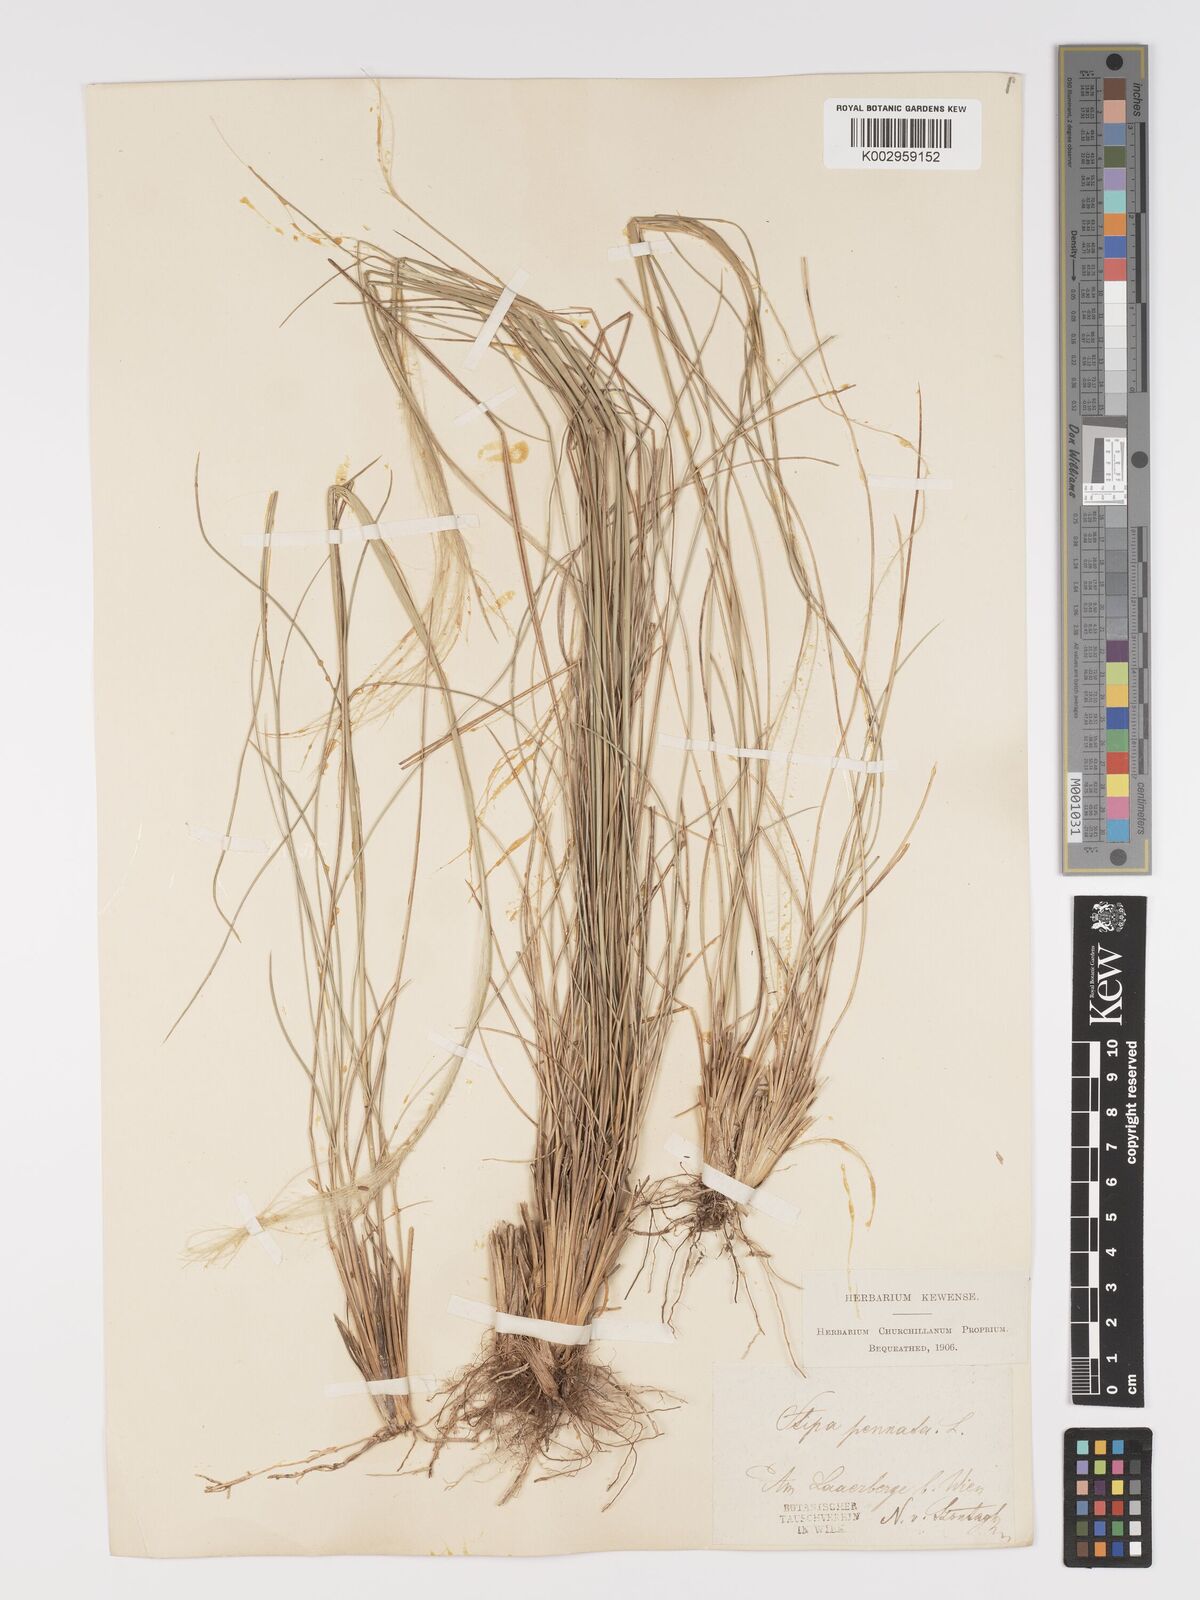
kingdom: Plantae
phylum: Tracheophyta
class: Liliopsida
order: Poales
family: Poaceae
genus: Stipa
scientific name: Stipa pennata
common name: European feather grass
